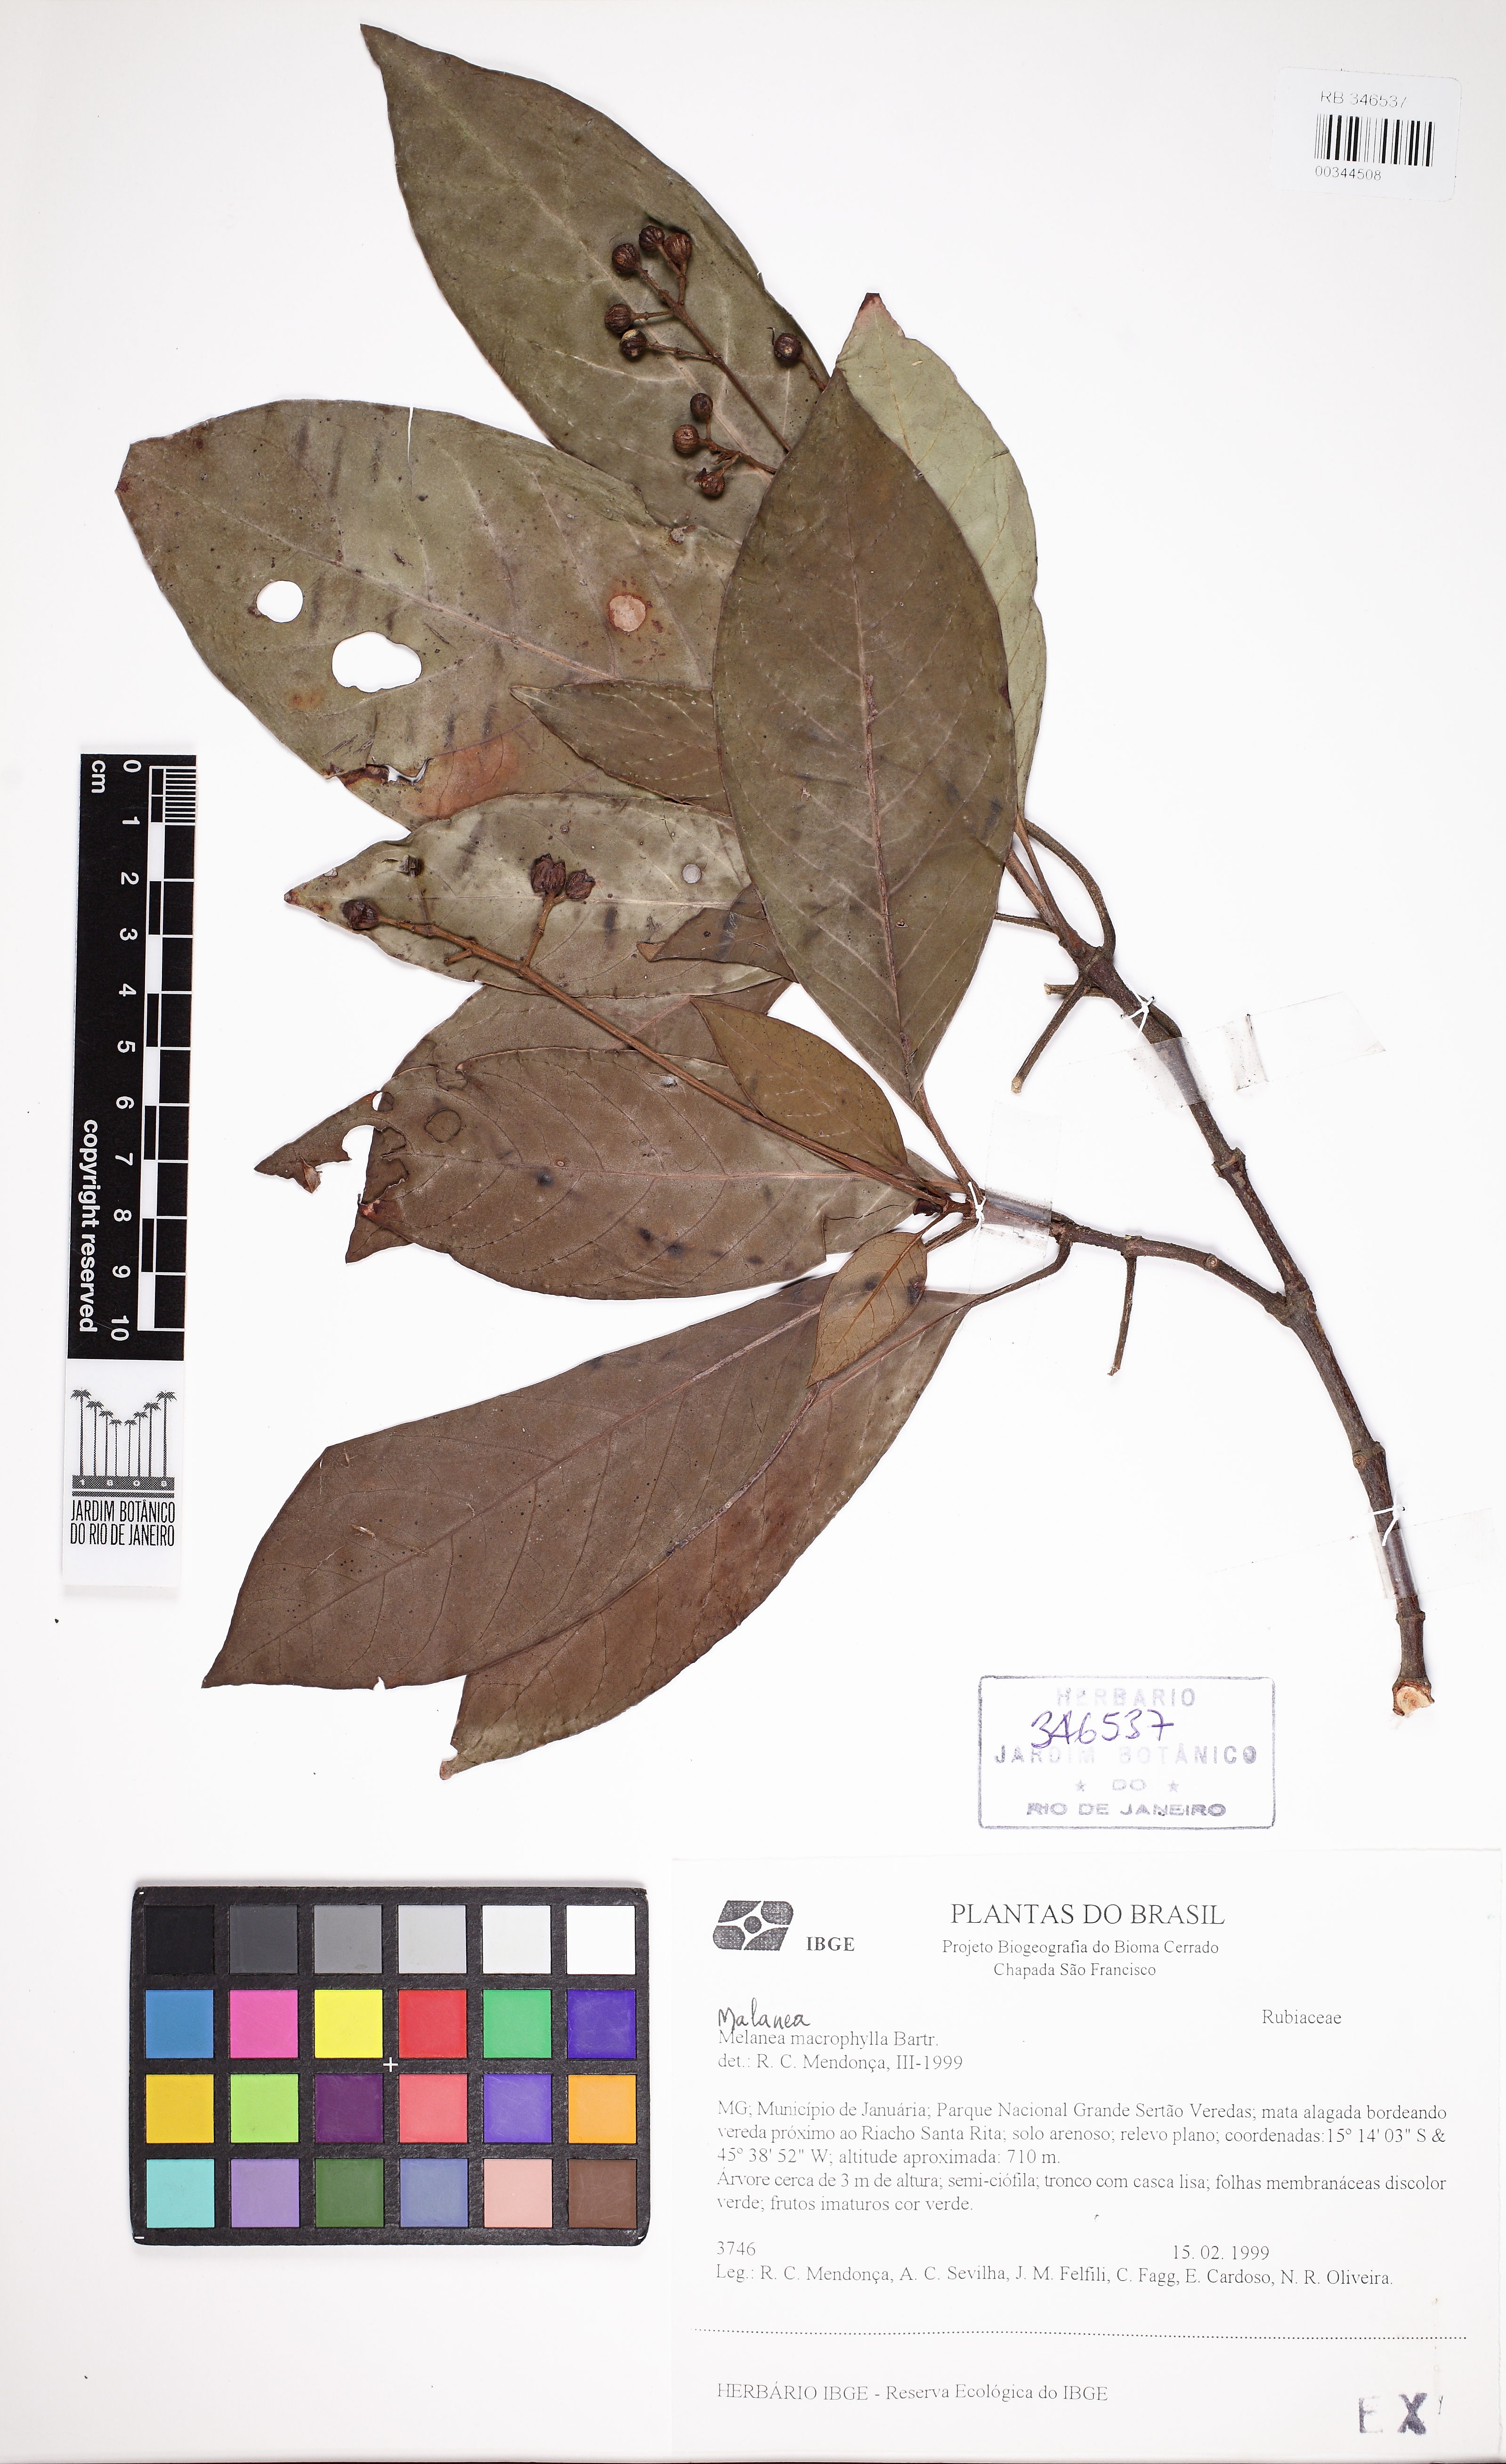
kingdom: Plantae
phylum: Tracheophyta
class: Magnoliopsida
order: Gentianales
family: Rubiaceae
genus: Psychotria
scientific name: Psychotria
